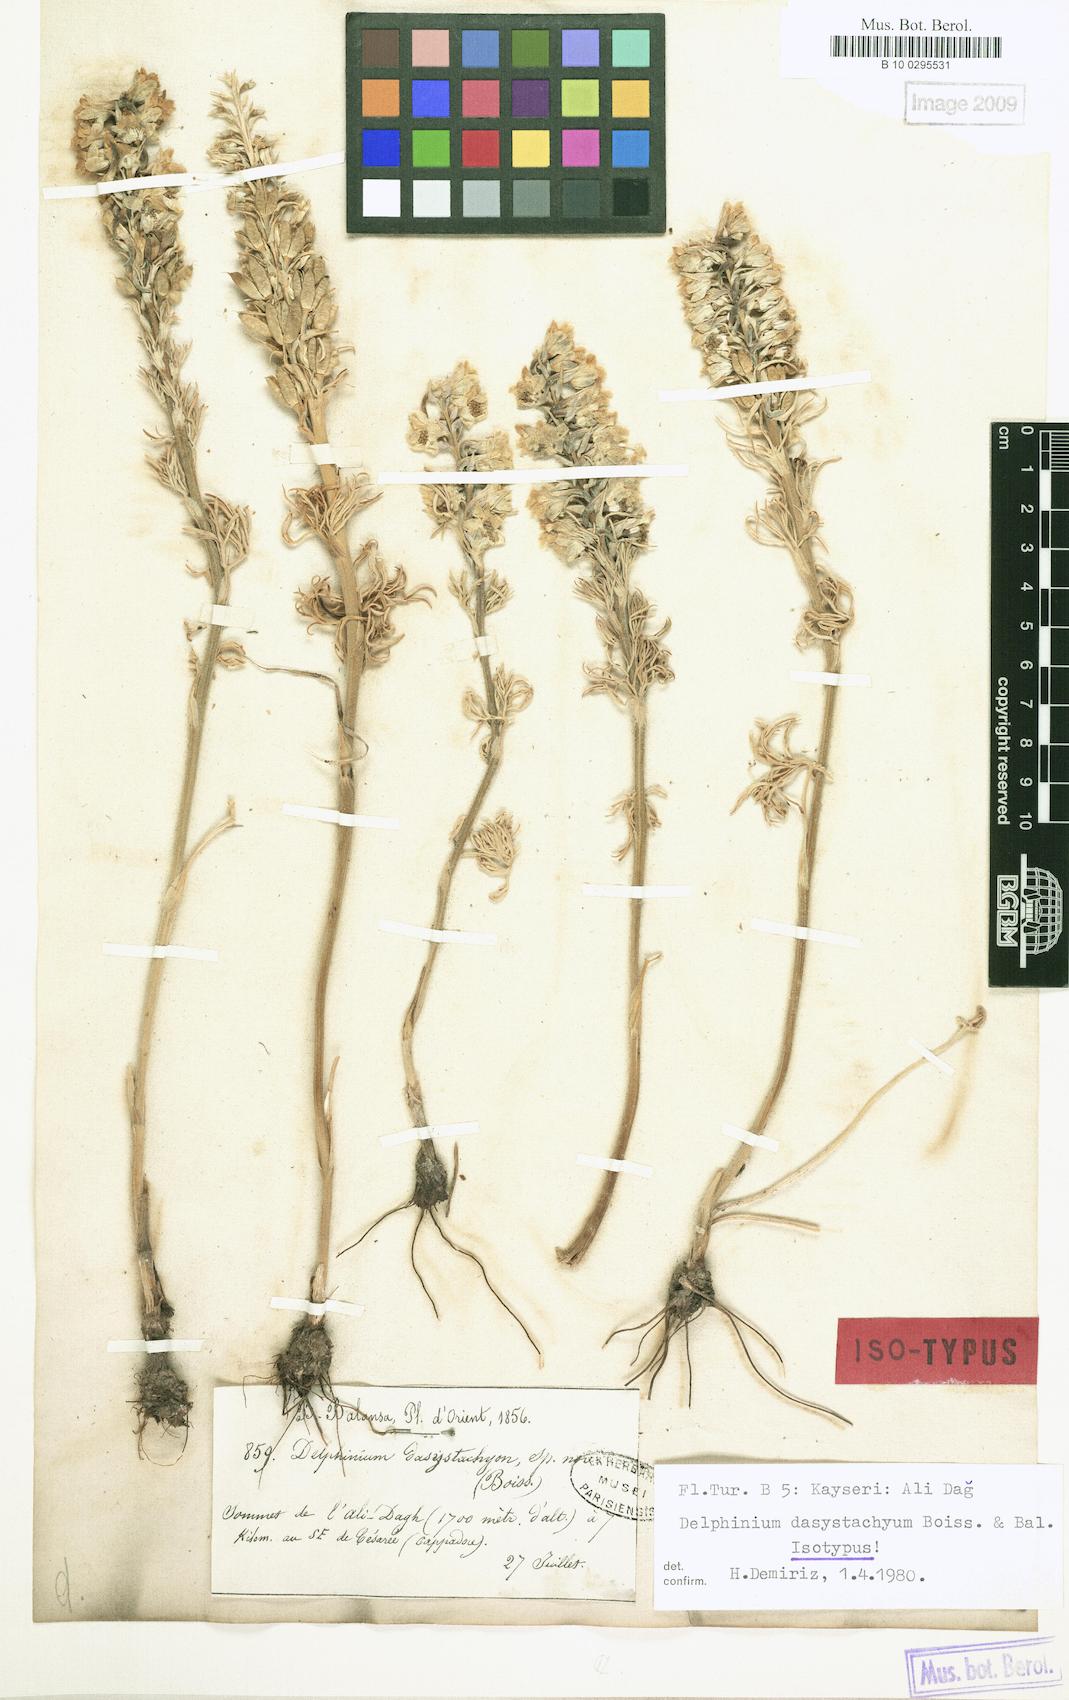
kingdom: Plantae
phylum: Tracheophyta
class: Magnoliopsida
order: Ranunculales
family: Ranunculaceae
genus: Delphinium
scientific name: Delphinium dasystachyum
